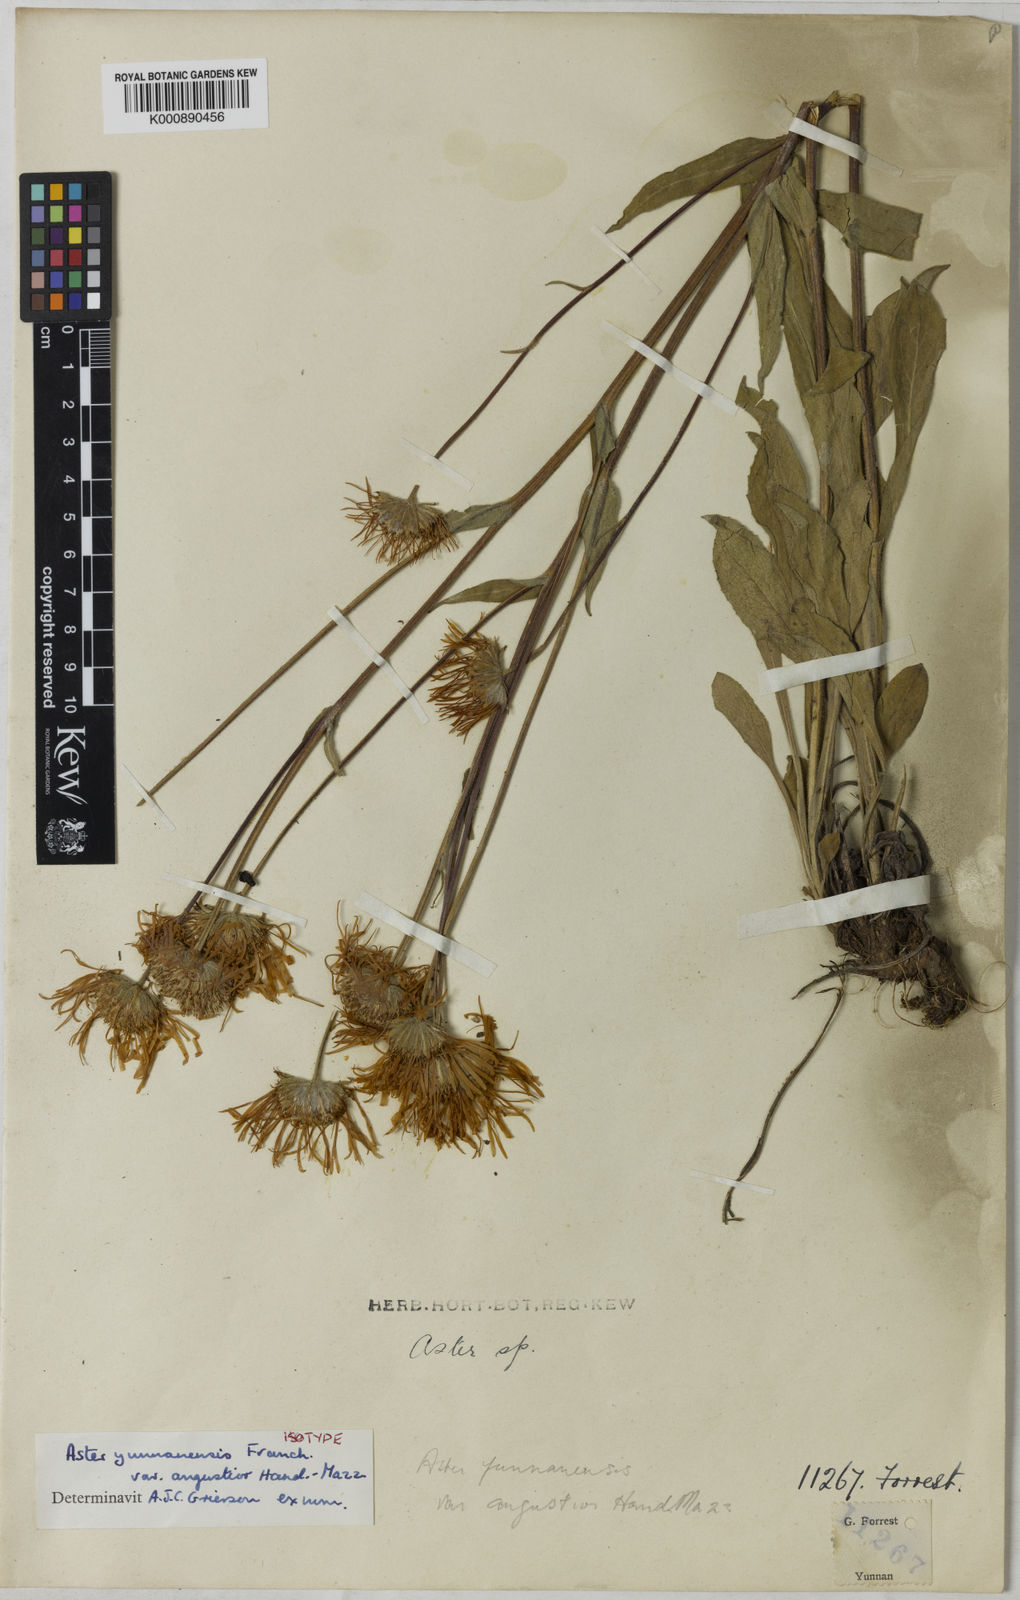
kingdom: Plantae
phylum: Tracheophyta
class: Magnoliopsida
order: Asterales
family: Asteraceae
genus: Tibetiodes
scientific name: Tibetiodes angustior
